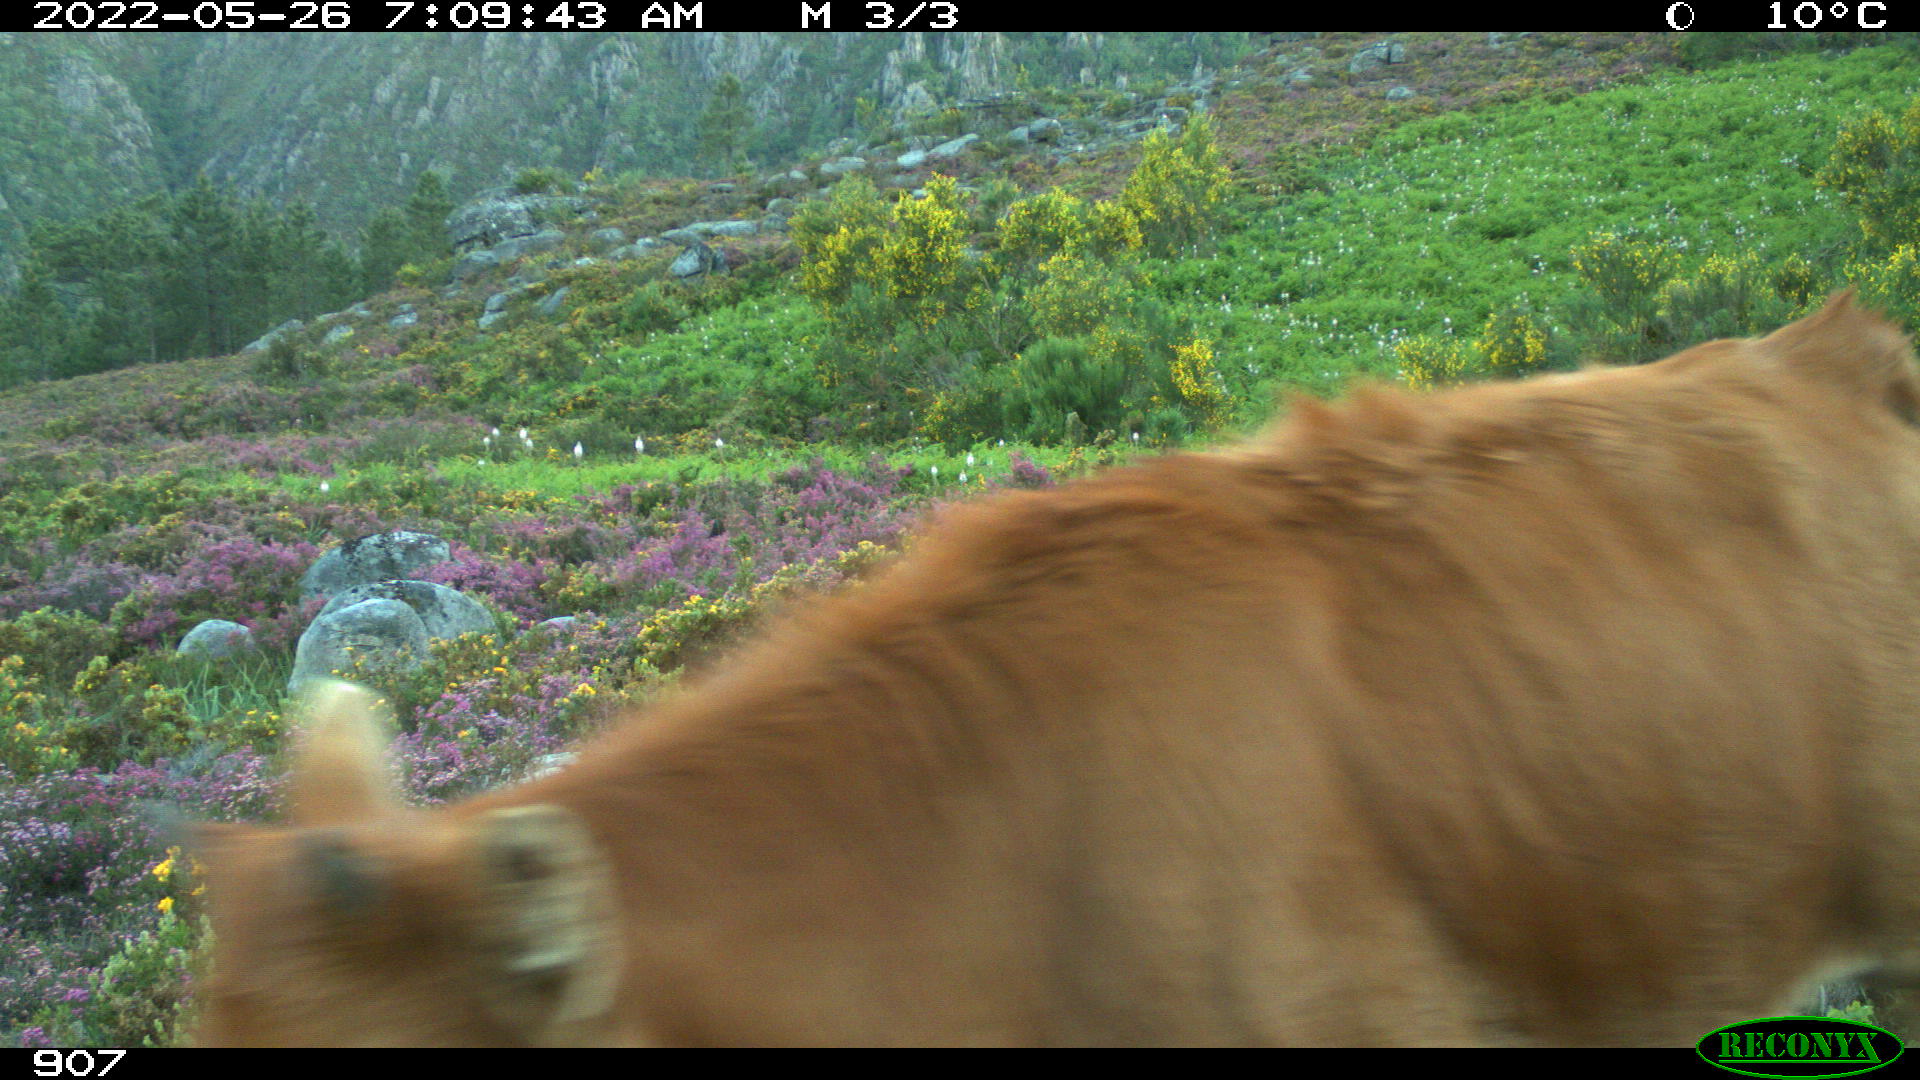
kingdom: Animalia
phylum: Chordata
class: Mammalia
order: Artiodactyla
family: Bovidae
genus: Bos
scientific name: Bos taurus
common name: Domesticated cattle
